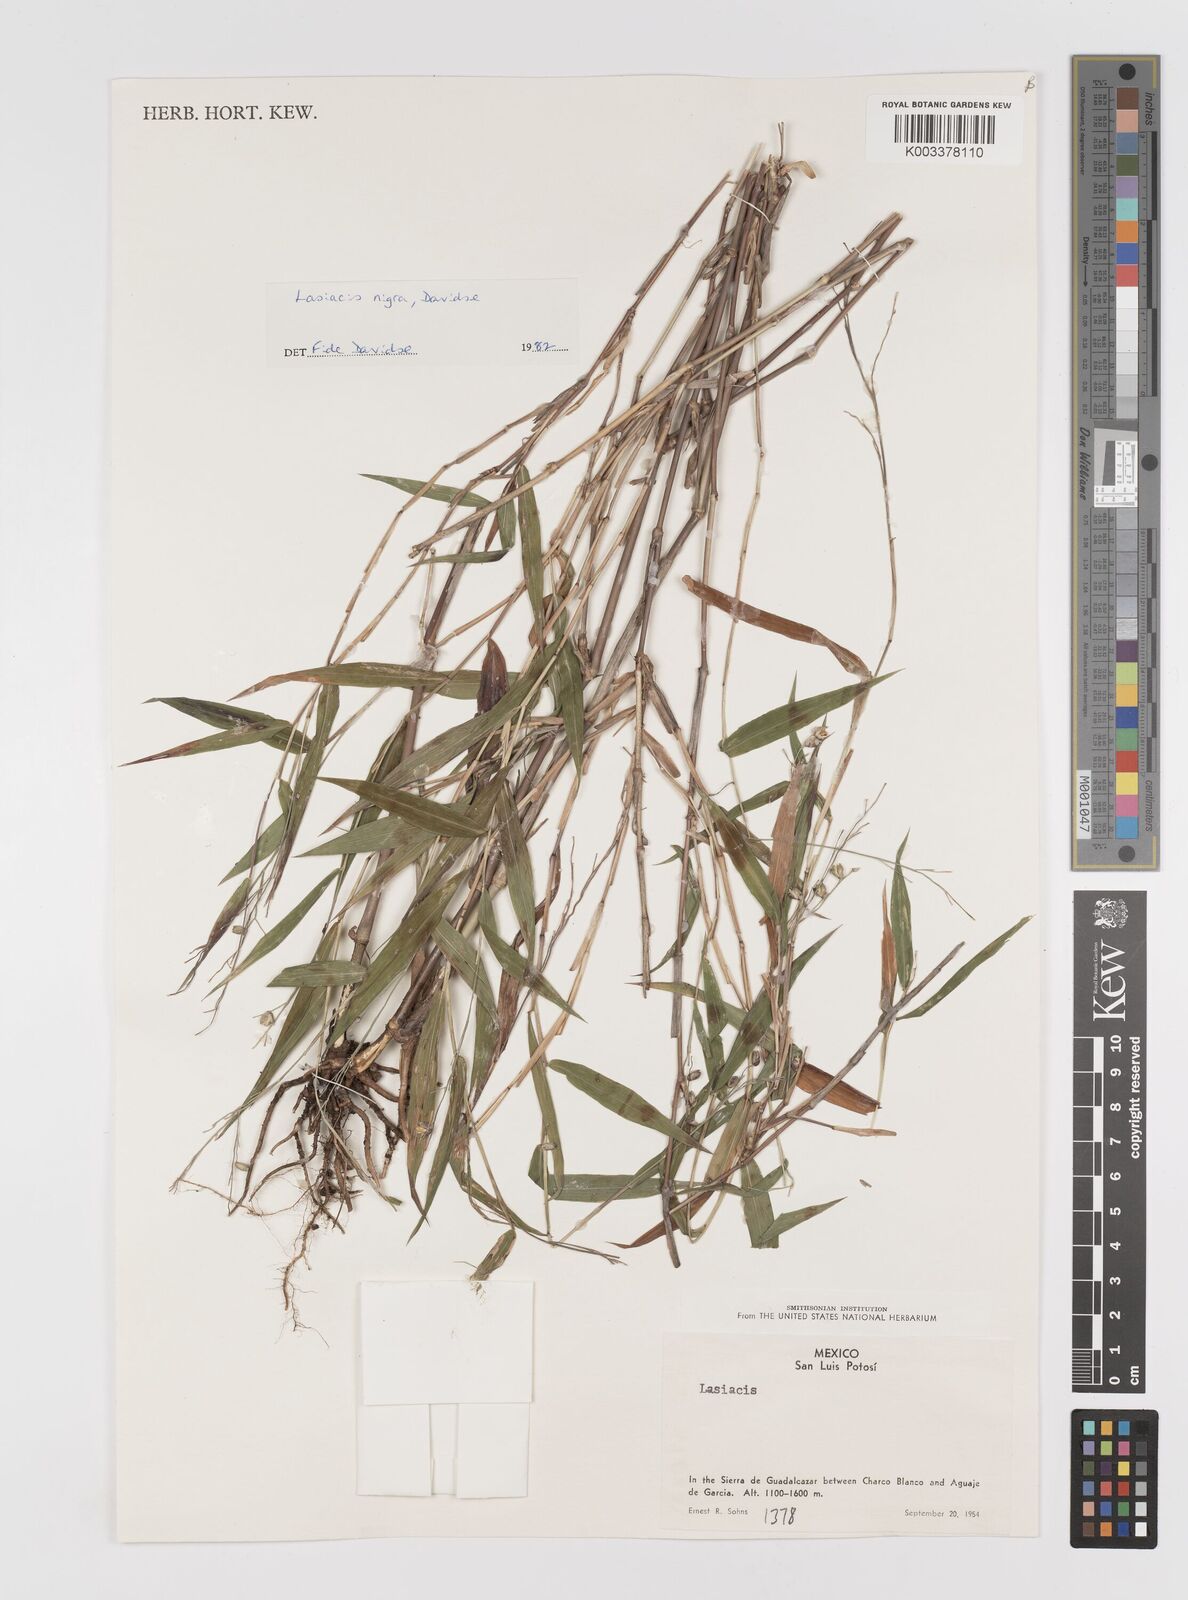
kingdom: Plantae
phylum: Tracheophyta
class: Liliopsida
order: Poales
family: Poaceae
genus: Lasiacis
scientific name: Lasiacis nigra
